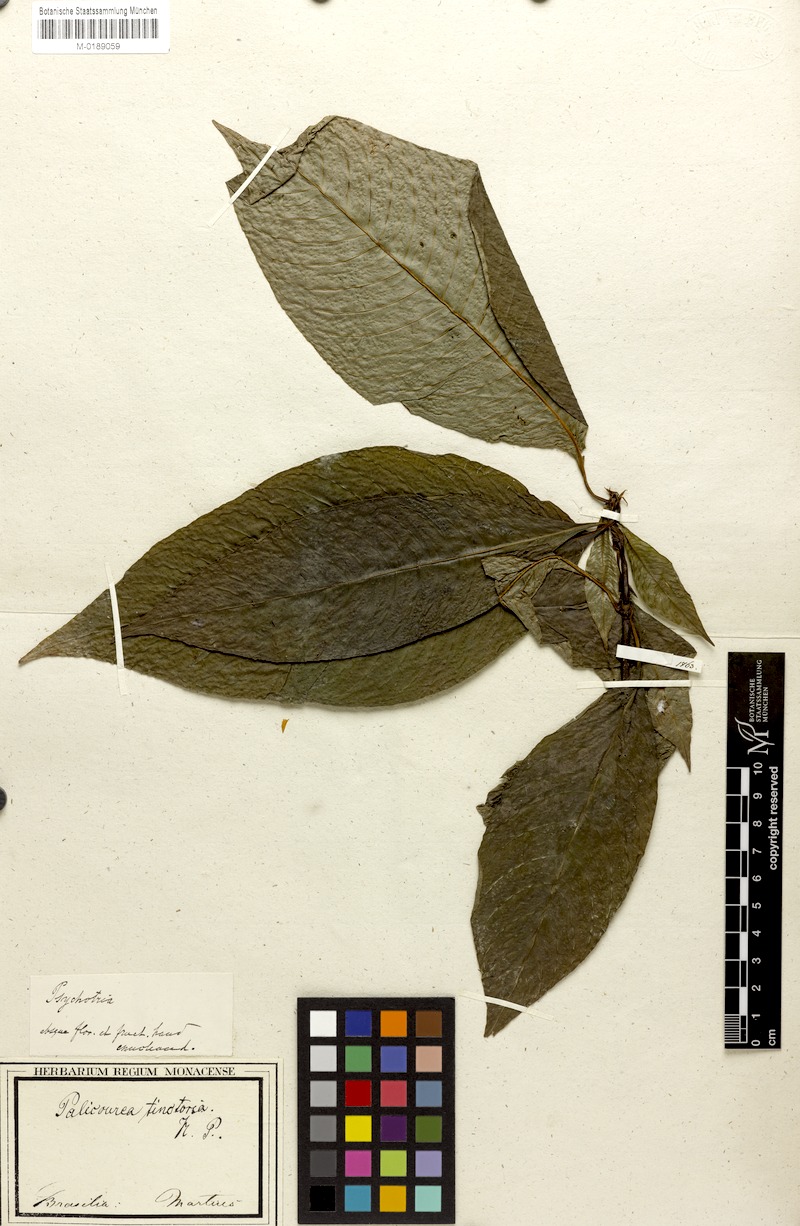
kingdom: Plantae
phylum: Tracheophyta
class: Magnoliopsida
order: Gentianales
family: Rubiaceae
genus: Psychotria
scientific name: Psychotria
